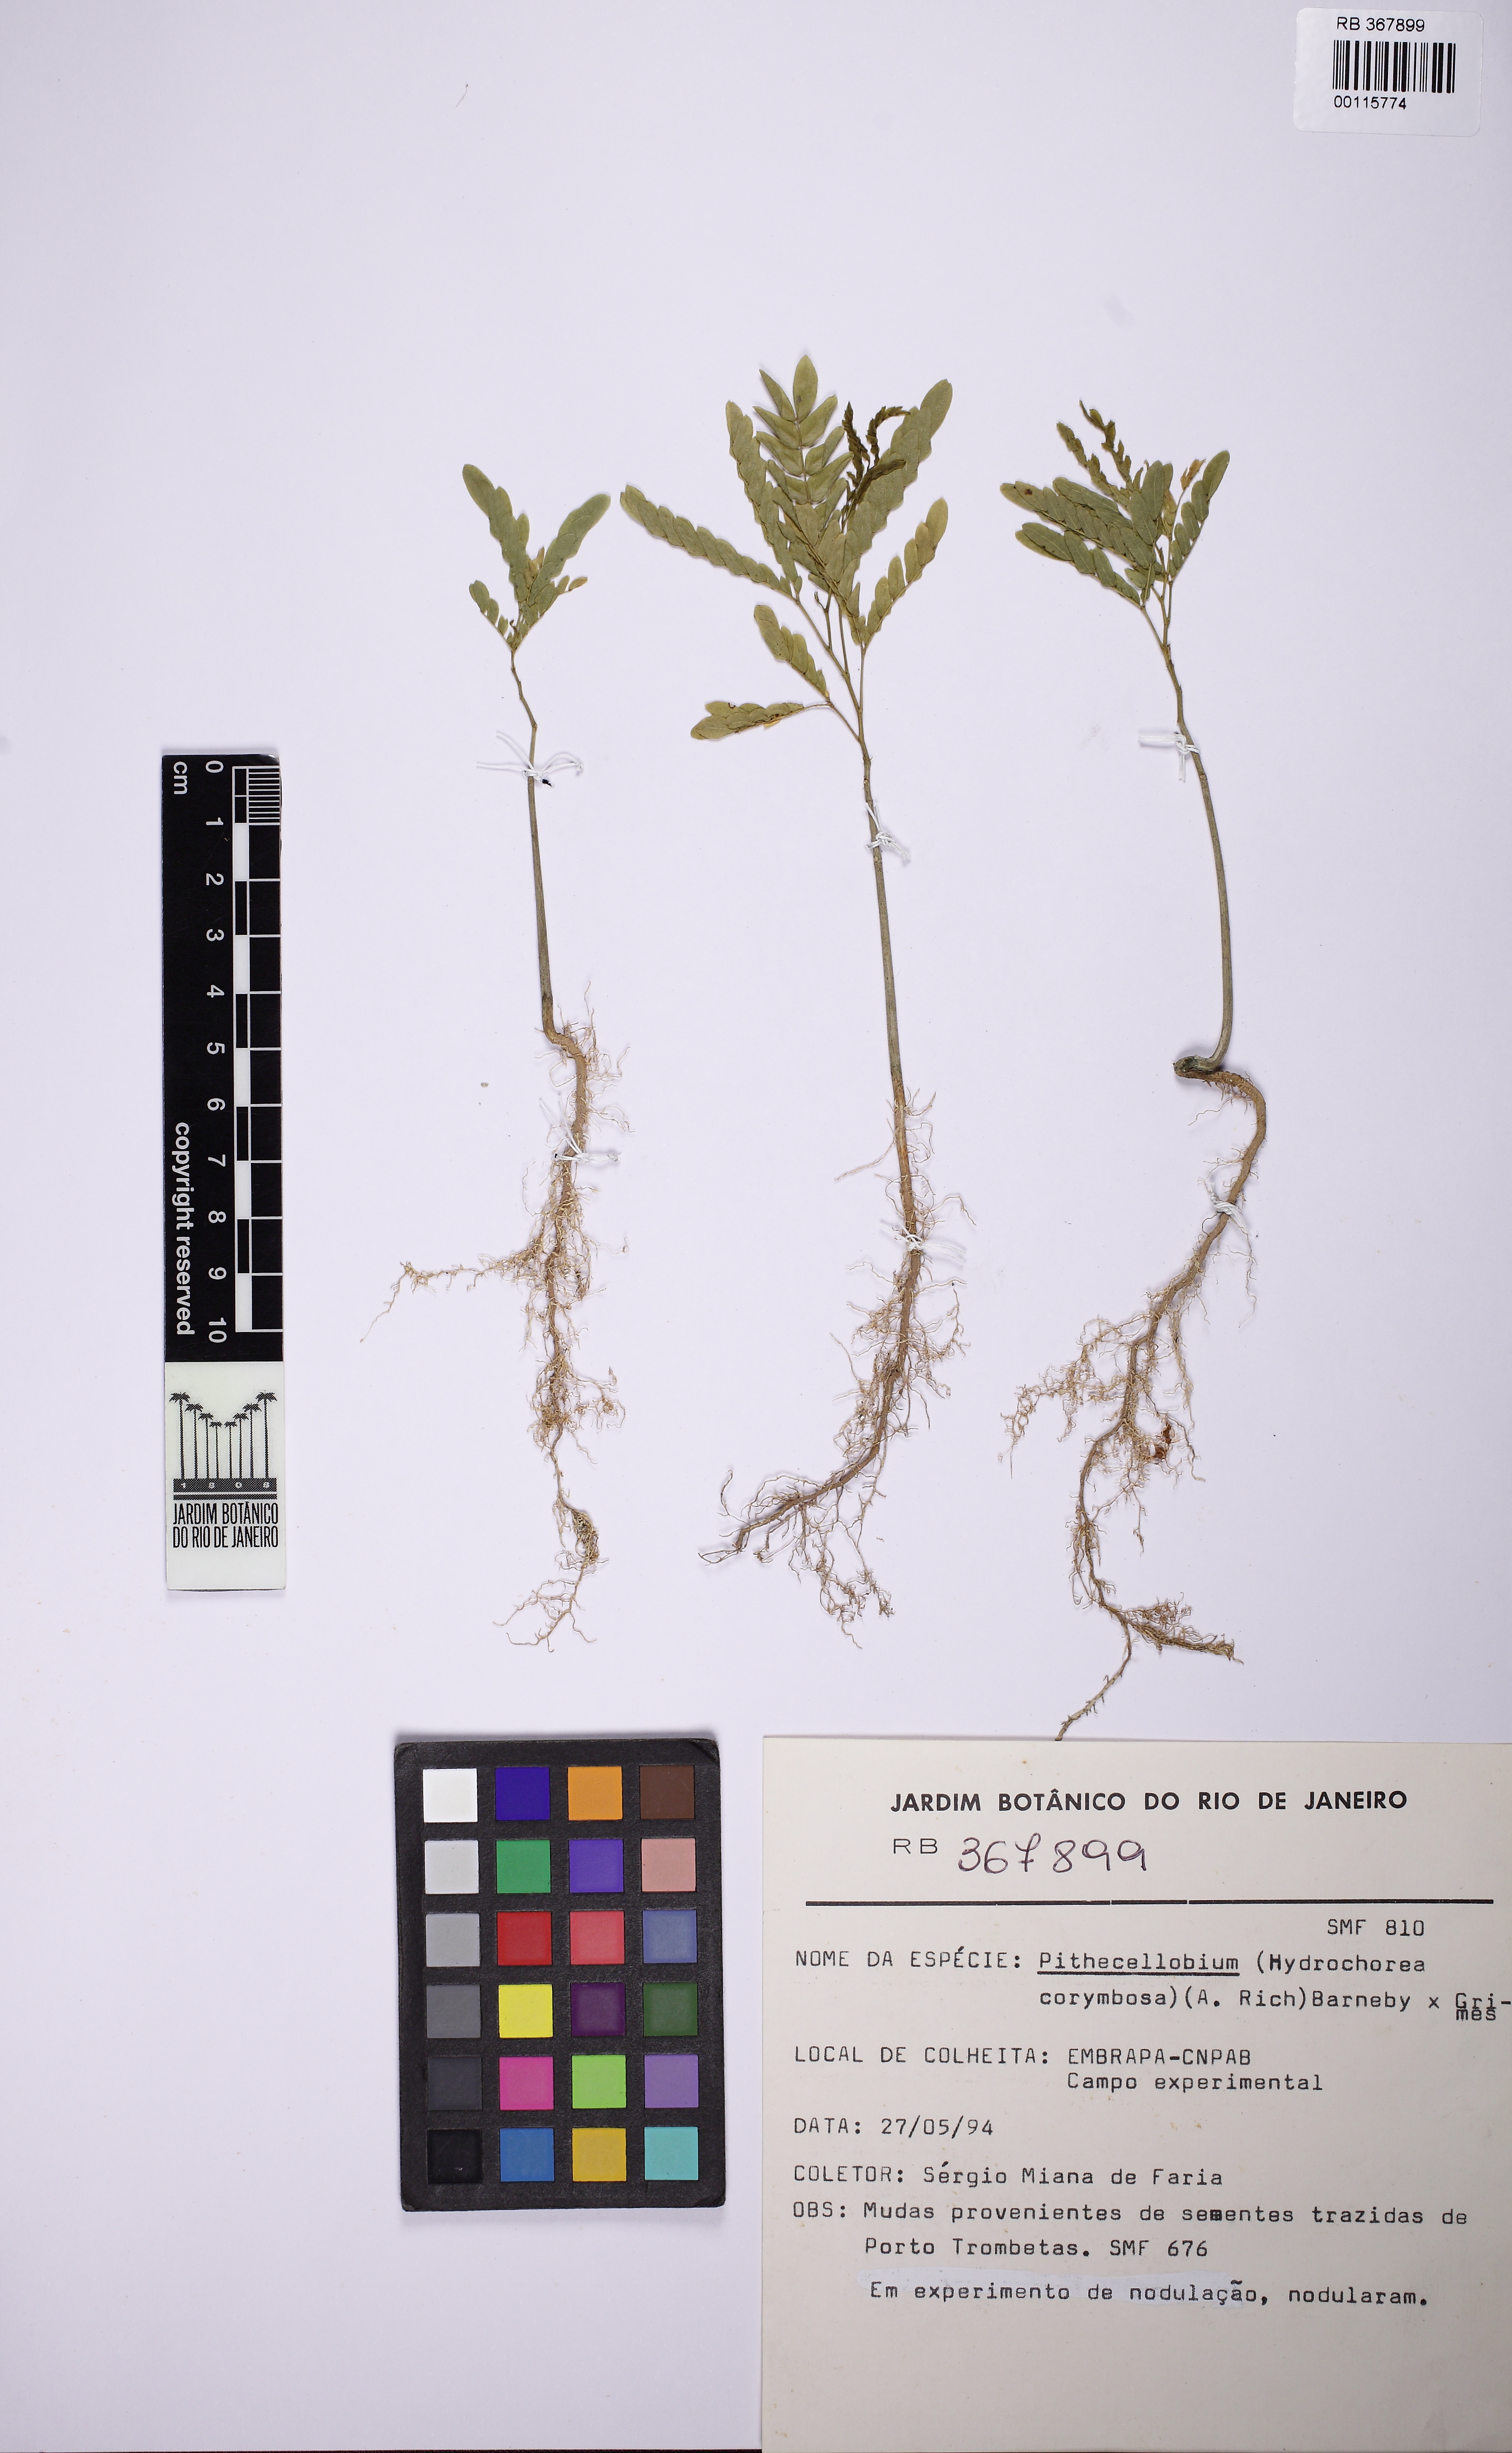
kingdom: Plantae
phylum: Tracheophyta
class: Magnoliopsida
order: Fabales
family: Fabaceae
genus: Hydrochorea
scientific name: Hydrochorea corymbosa
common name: Swamp manariballi
